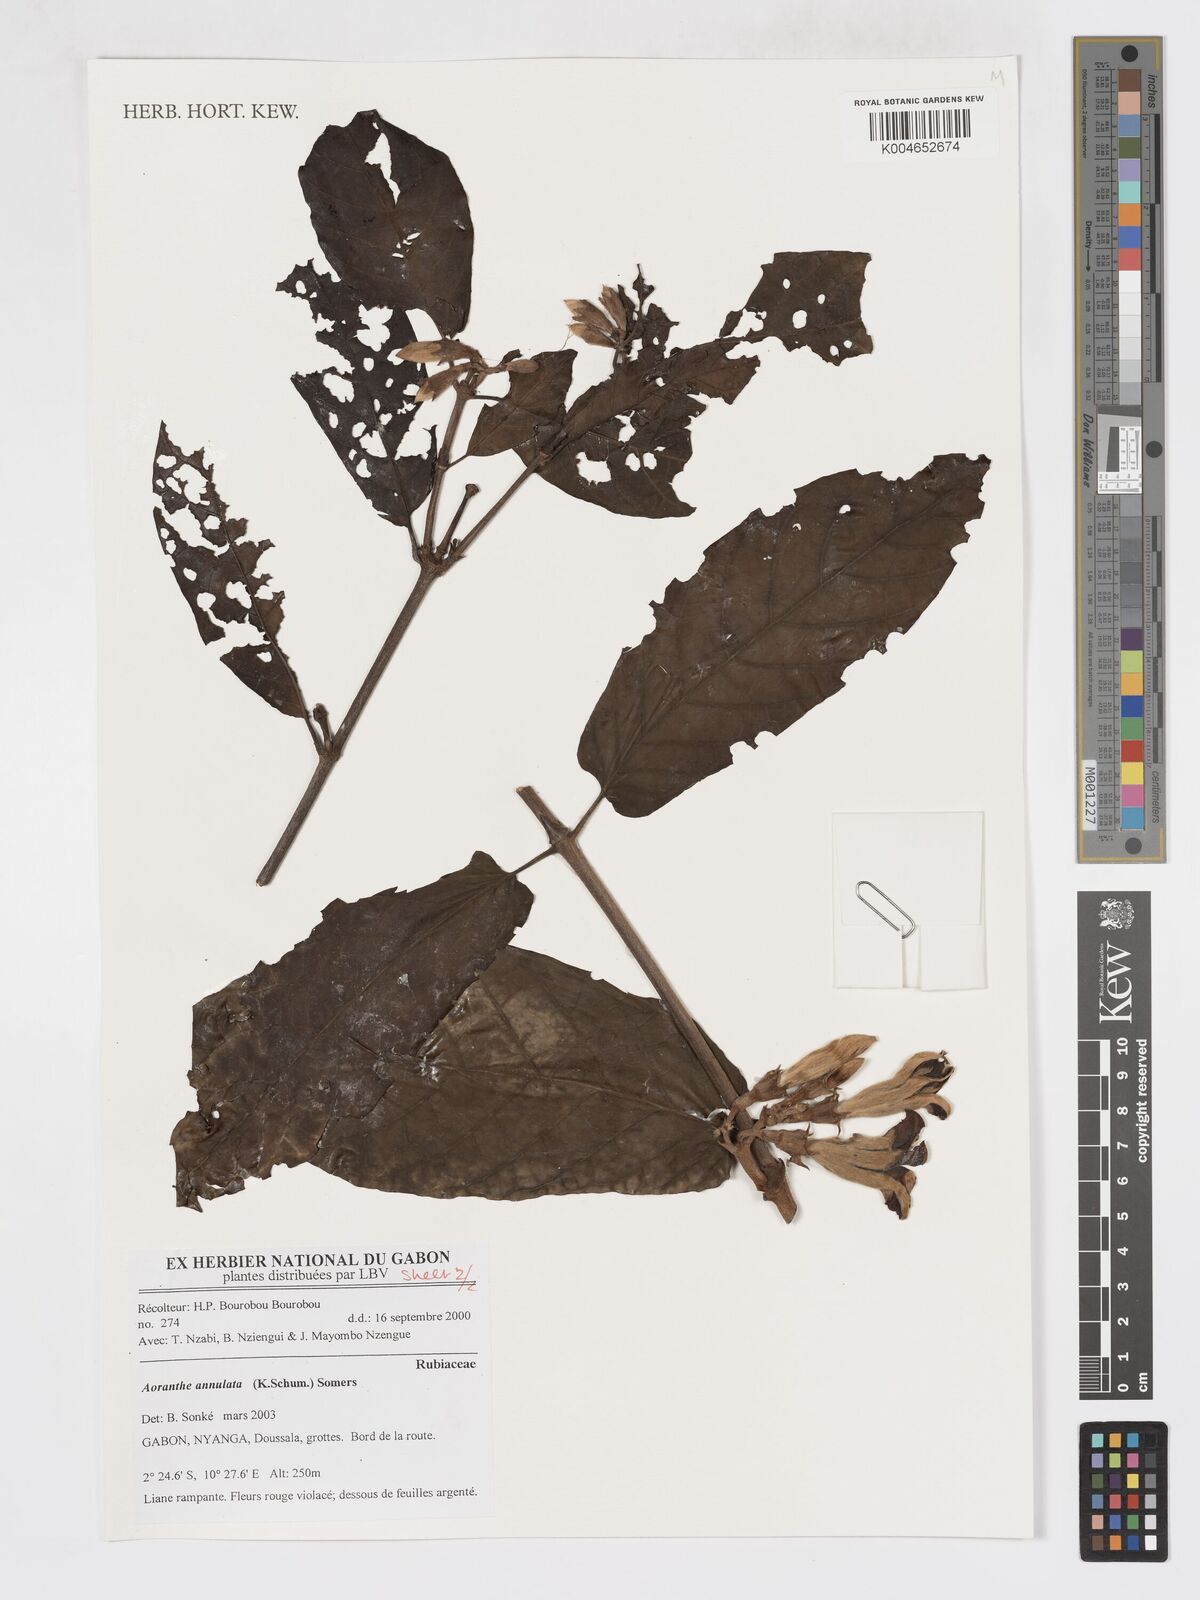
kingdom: Plantae
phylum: Tracheophyta
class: Magnoliopsida
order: Gentianales
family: Rubiaceae
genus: Aoranthe
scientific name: Aoranthe annulata
